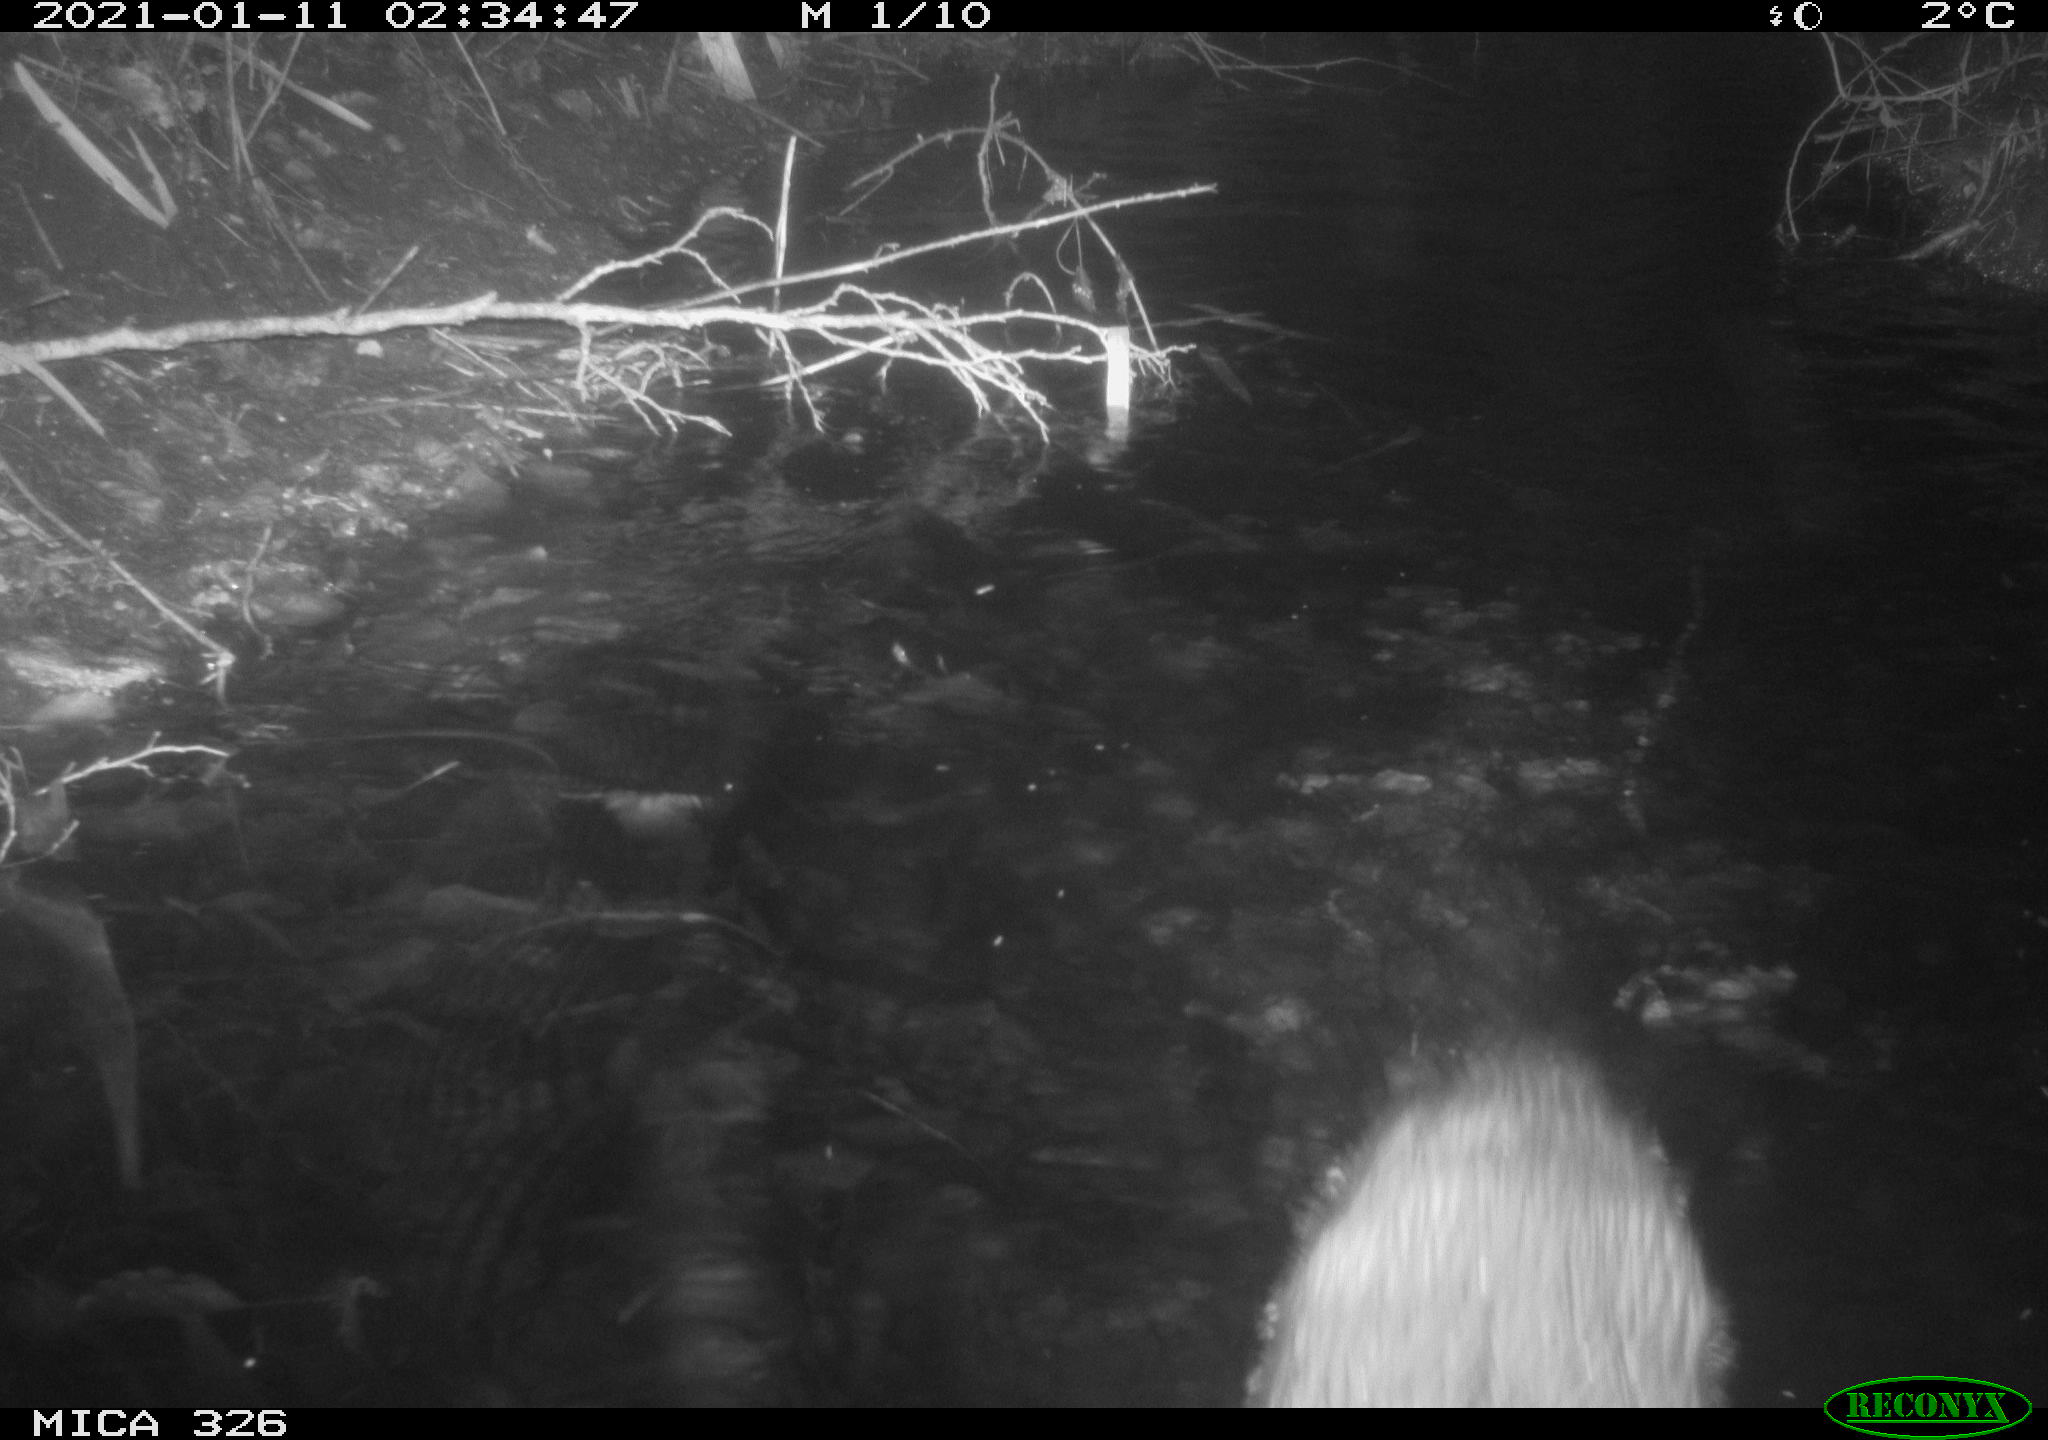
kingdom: Animalia
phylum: Chordata
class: Mammalia
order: Carnivora
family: Mustelidae
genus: Lutra
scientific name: Lutra lutra
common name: European otter
